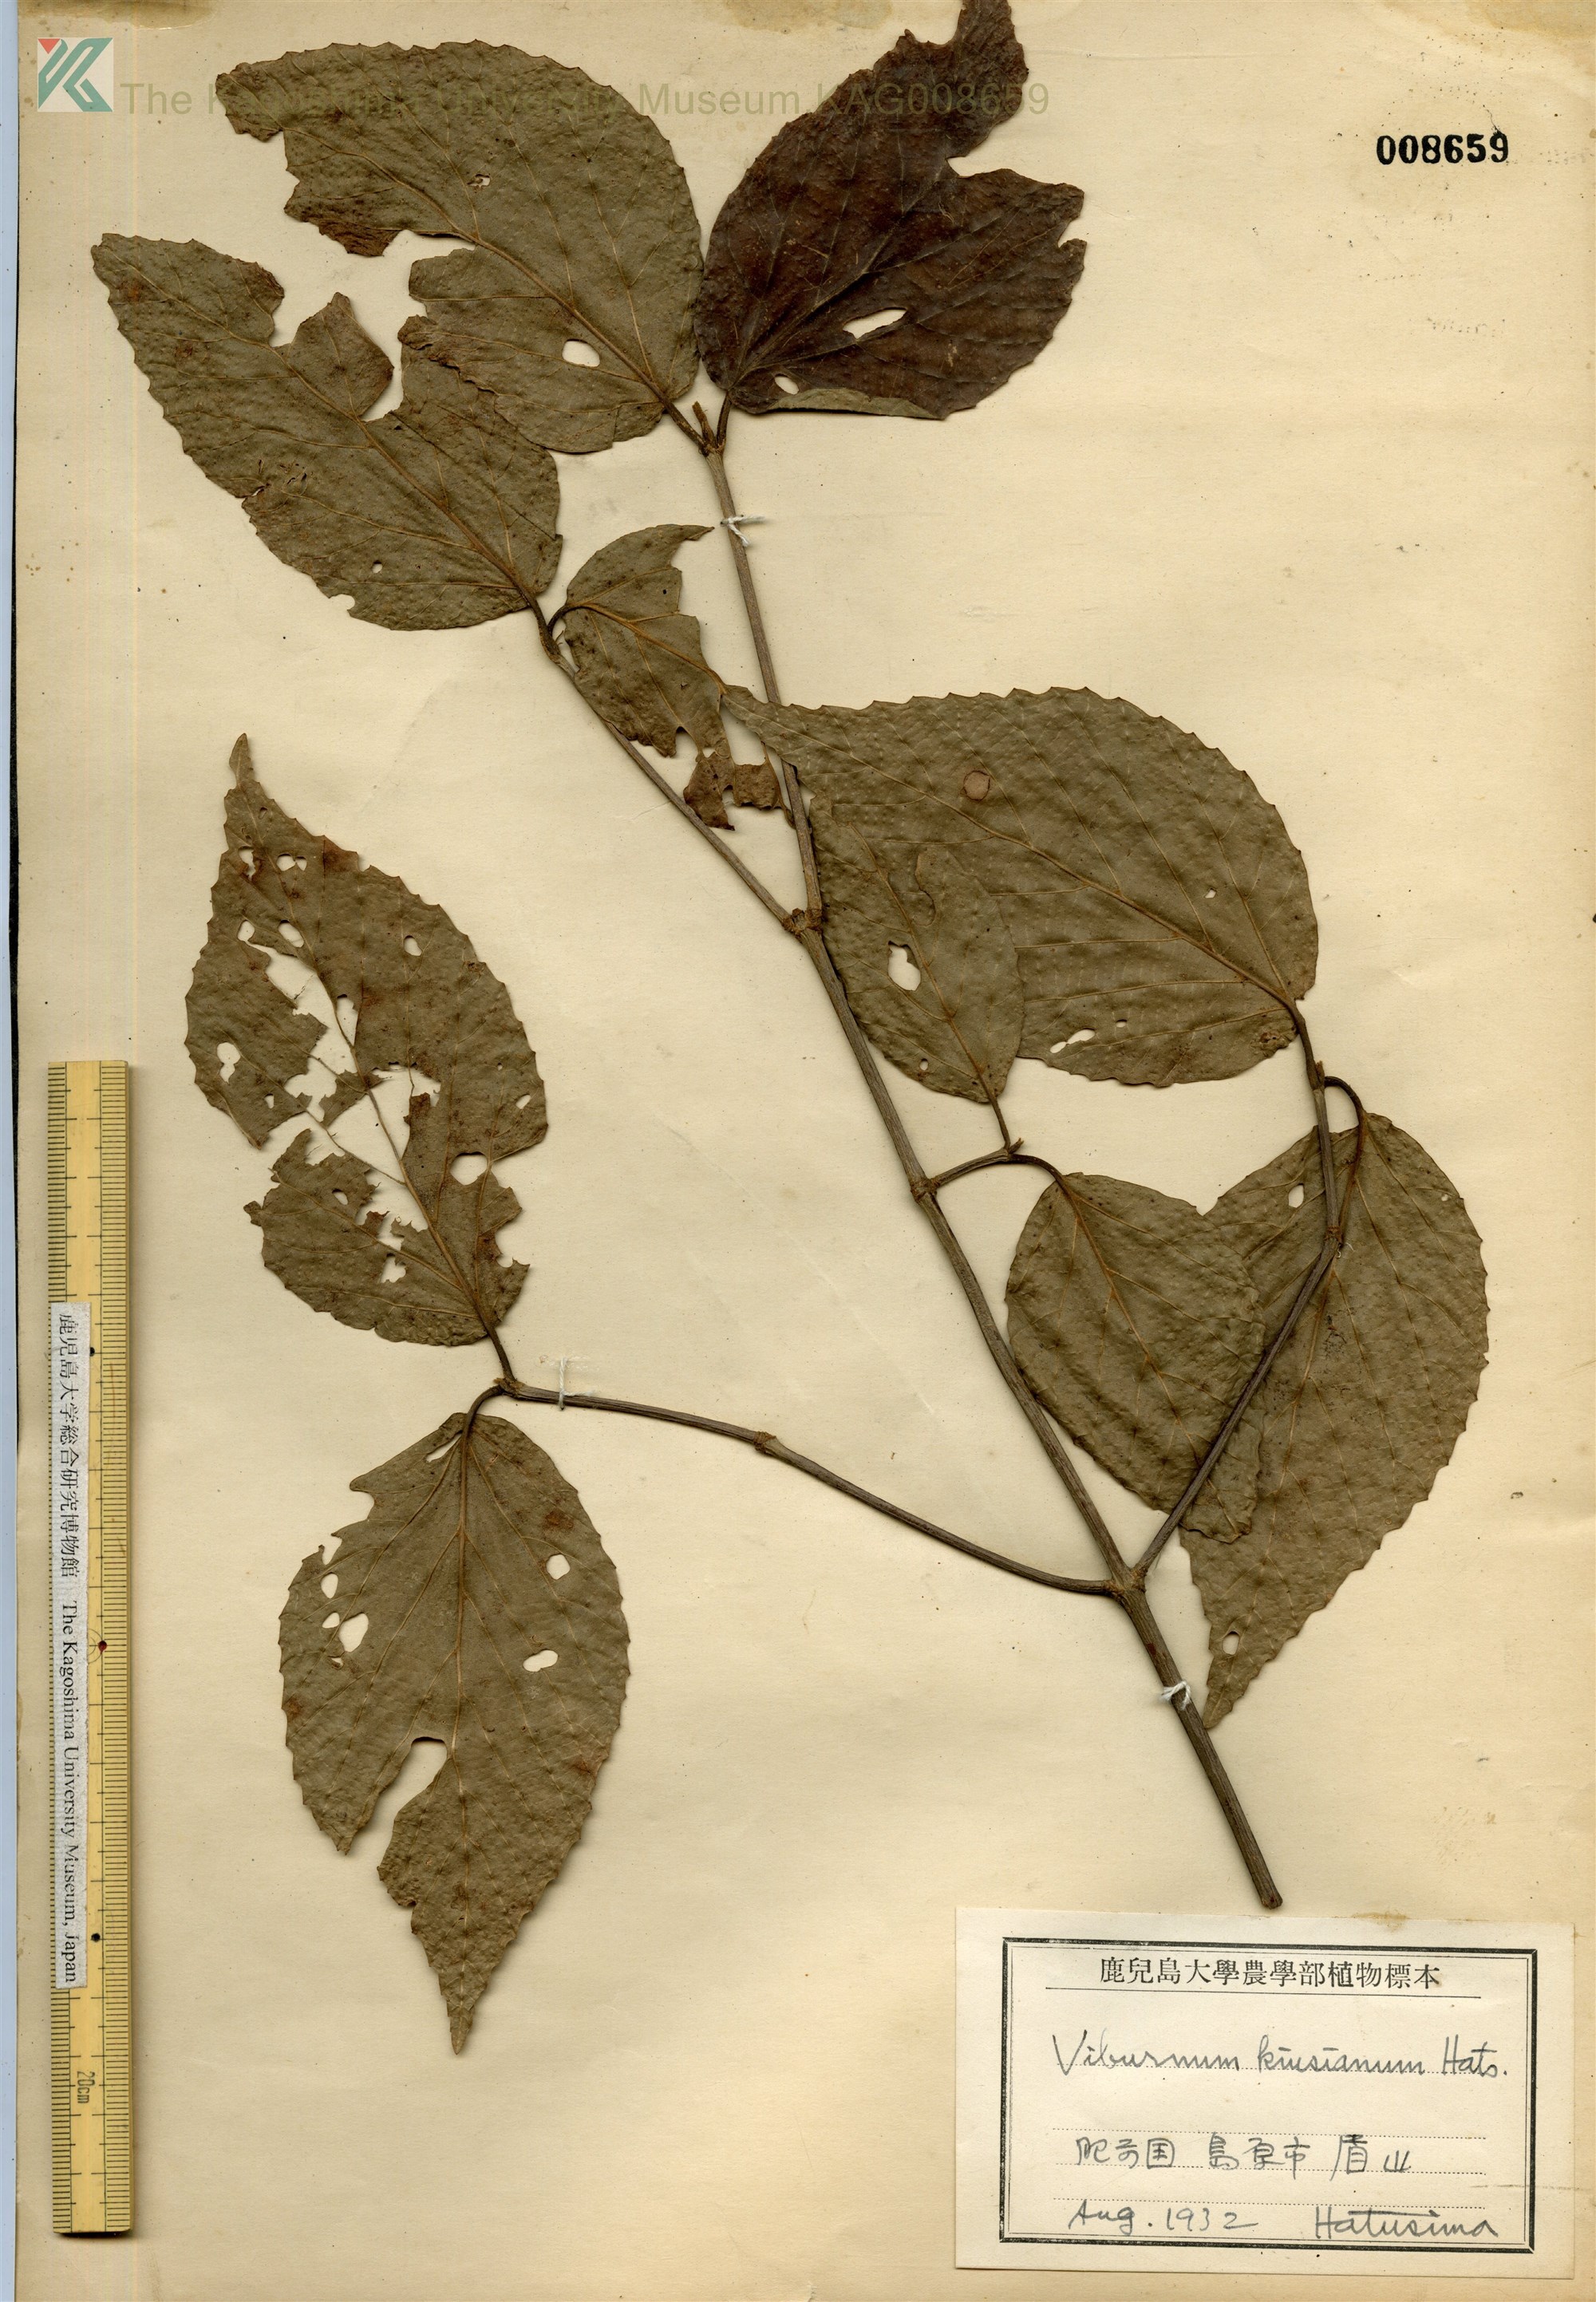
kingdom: Plantae
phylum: Tracheophyta
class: Magnoliopsida
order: Dipsacales
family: Viburnaceae
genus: Viburnum
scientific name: Viburnum kiusianum
